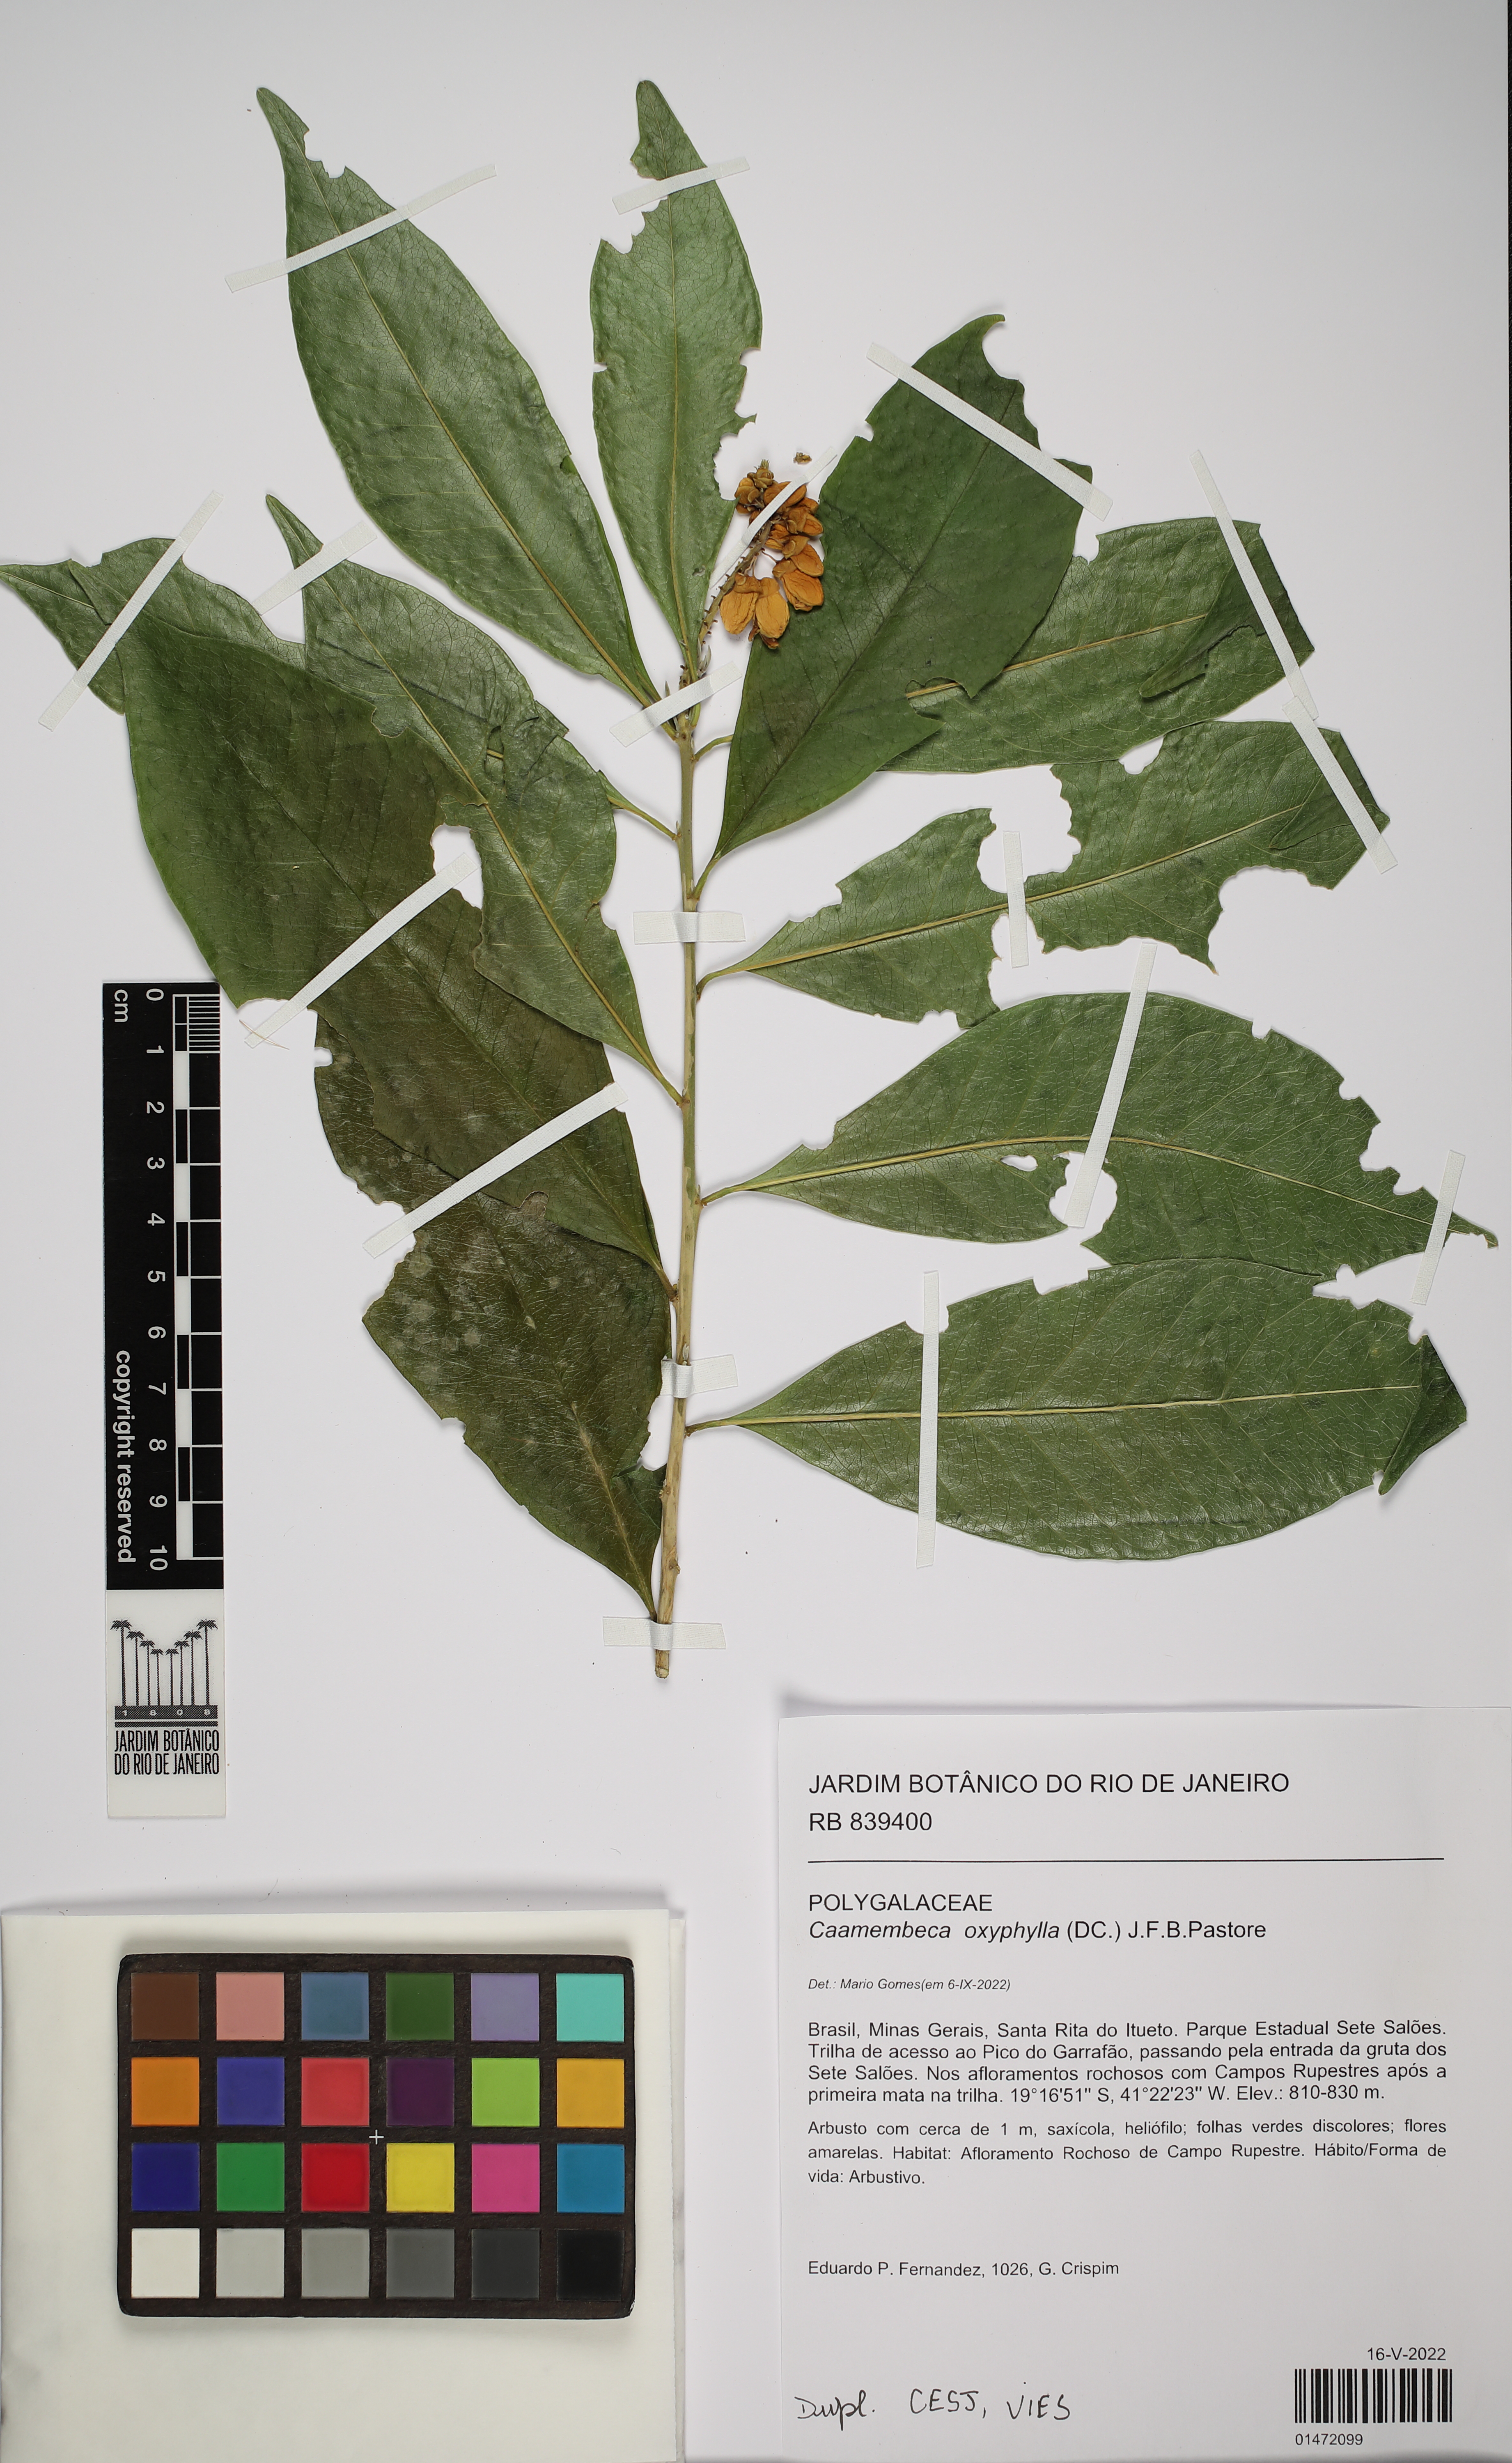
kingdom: Plantae
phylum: Tracheophyta
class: Magnoliopsida
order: Fabales
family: Polygalaceae
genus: Caamembeca
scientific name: Caamembeca oxyphylla
